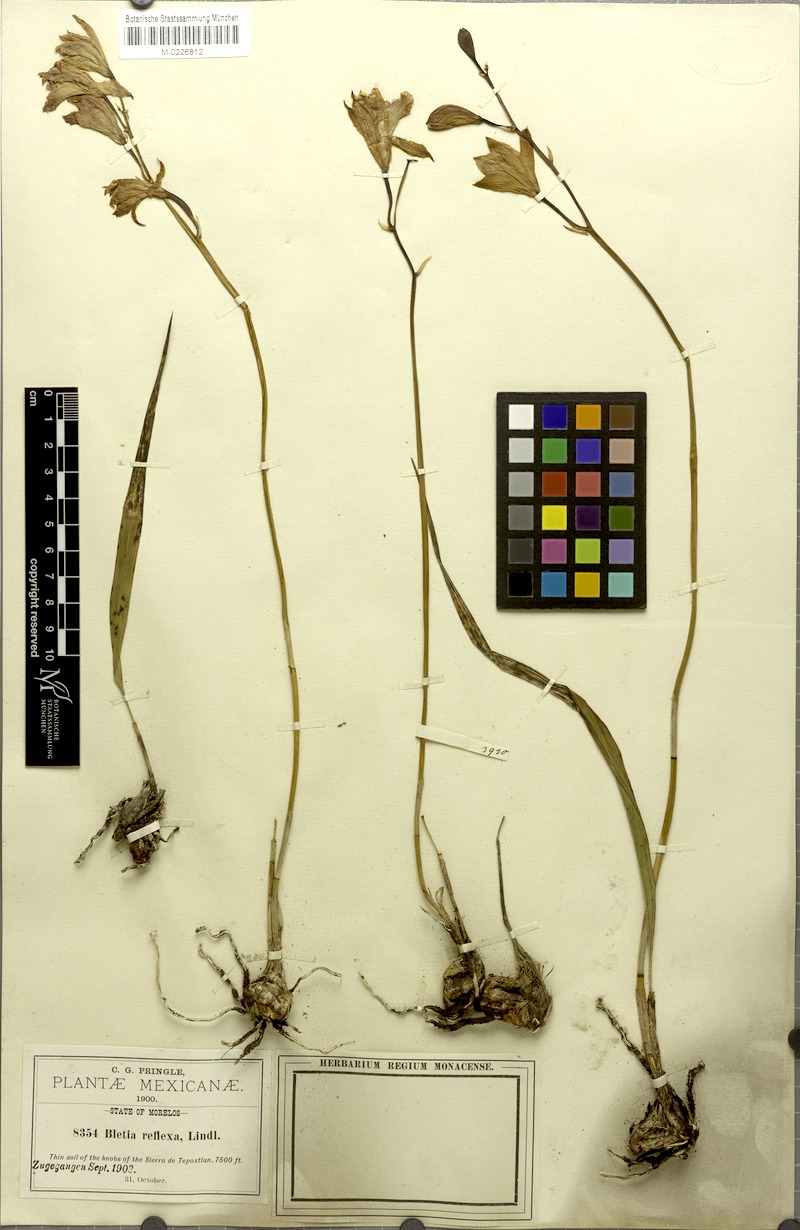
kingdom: Plantae
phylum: Tracheophyta
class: Liliopsida
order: Asparagales
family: Orchidaceae
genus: Bletia
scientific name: Bletia reflexa
